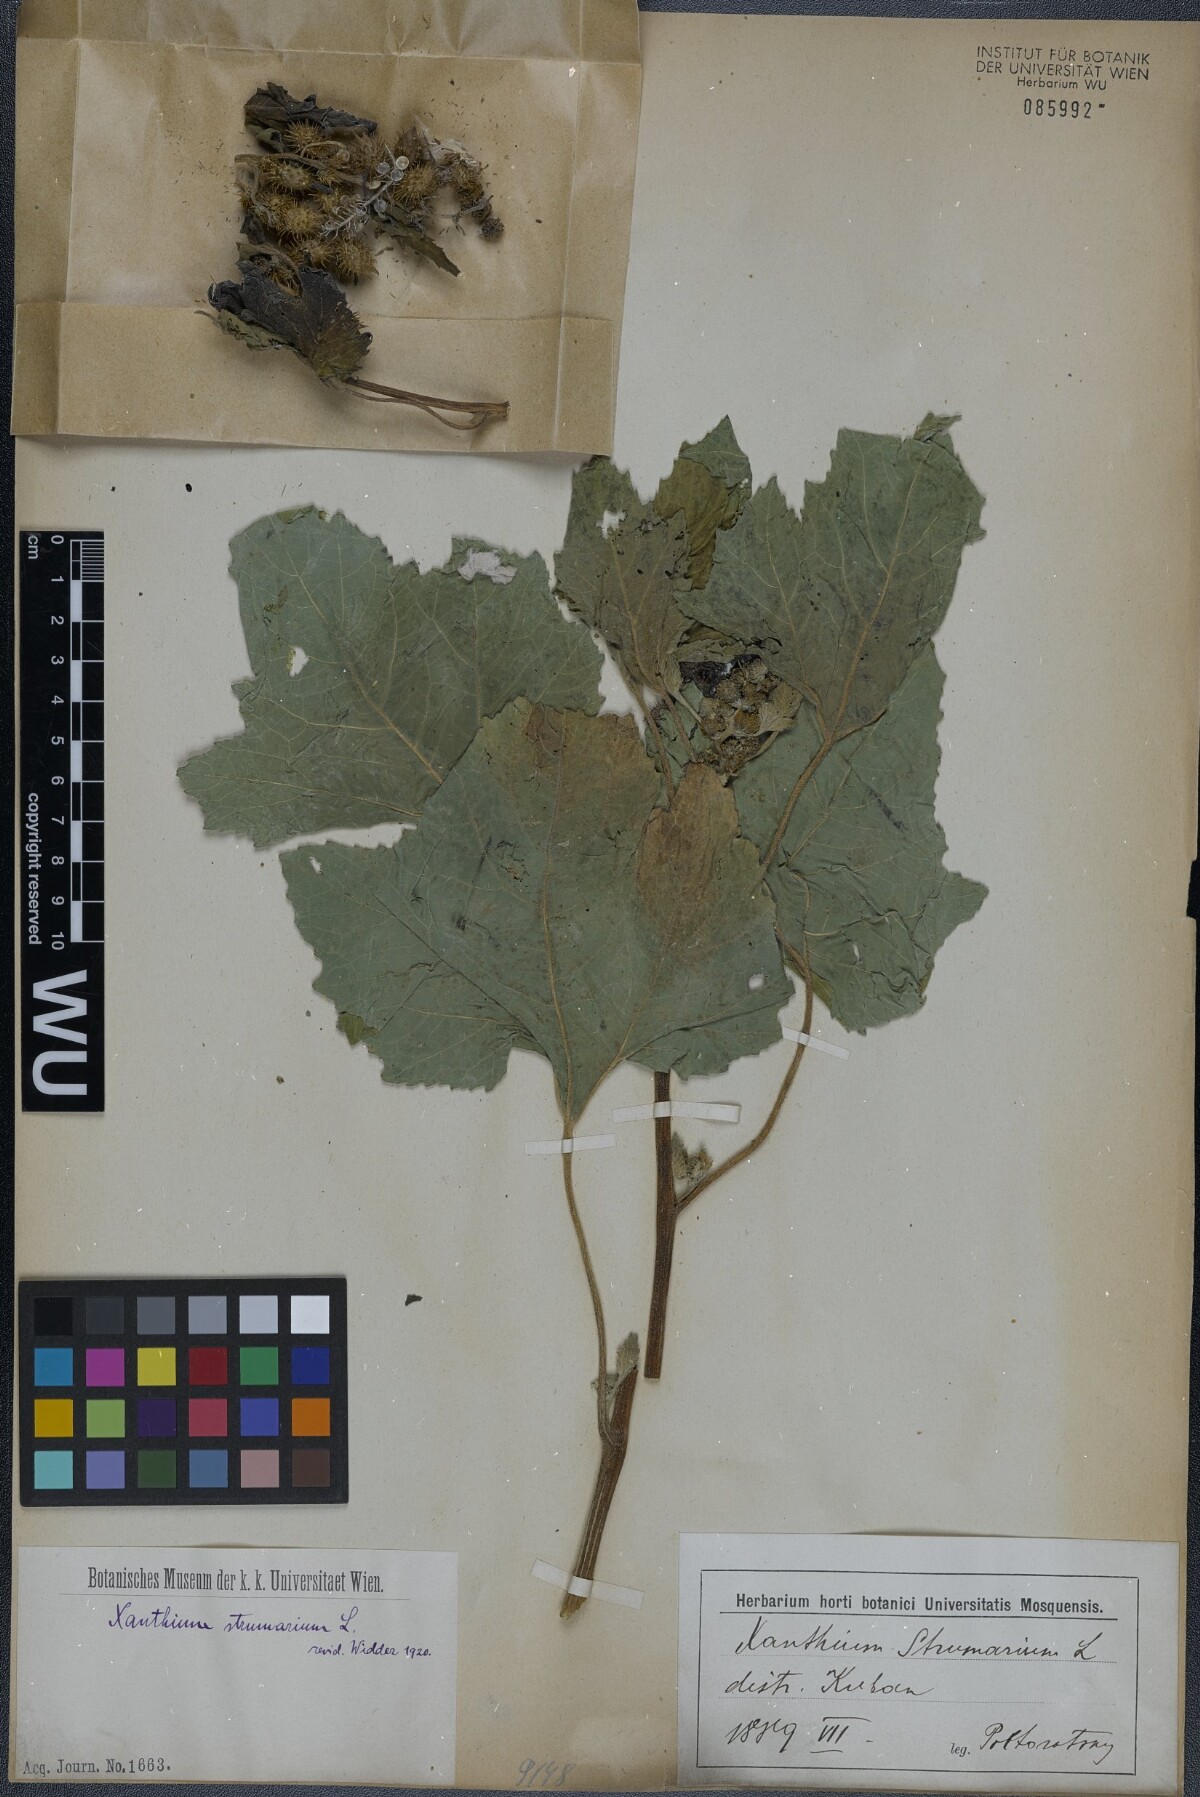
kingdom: Plantae
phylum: Tracheophyta
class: Magnoliopsida
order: Asterales
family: Asteraceae
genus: Xanthium
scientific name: Xanthium strumarium
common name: Rough cocklebur
